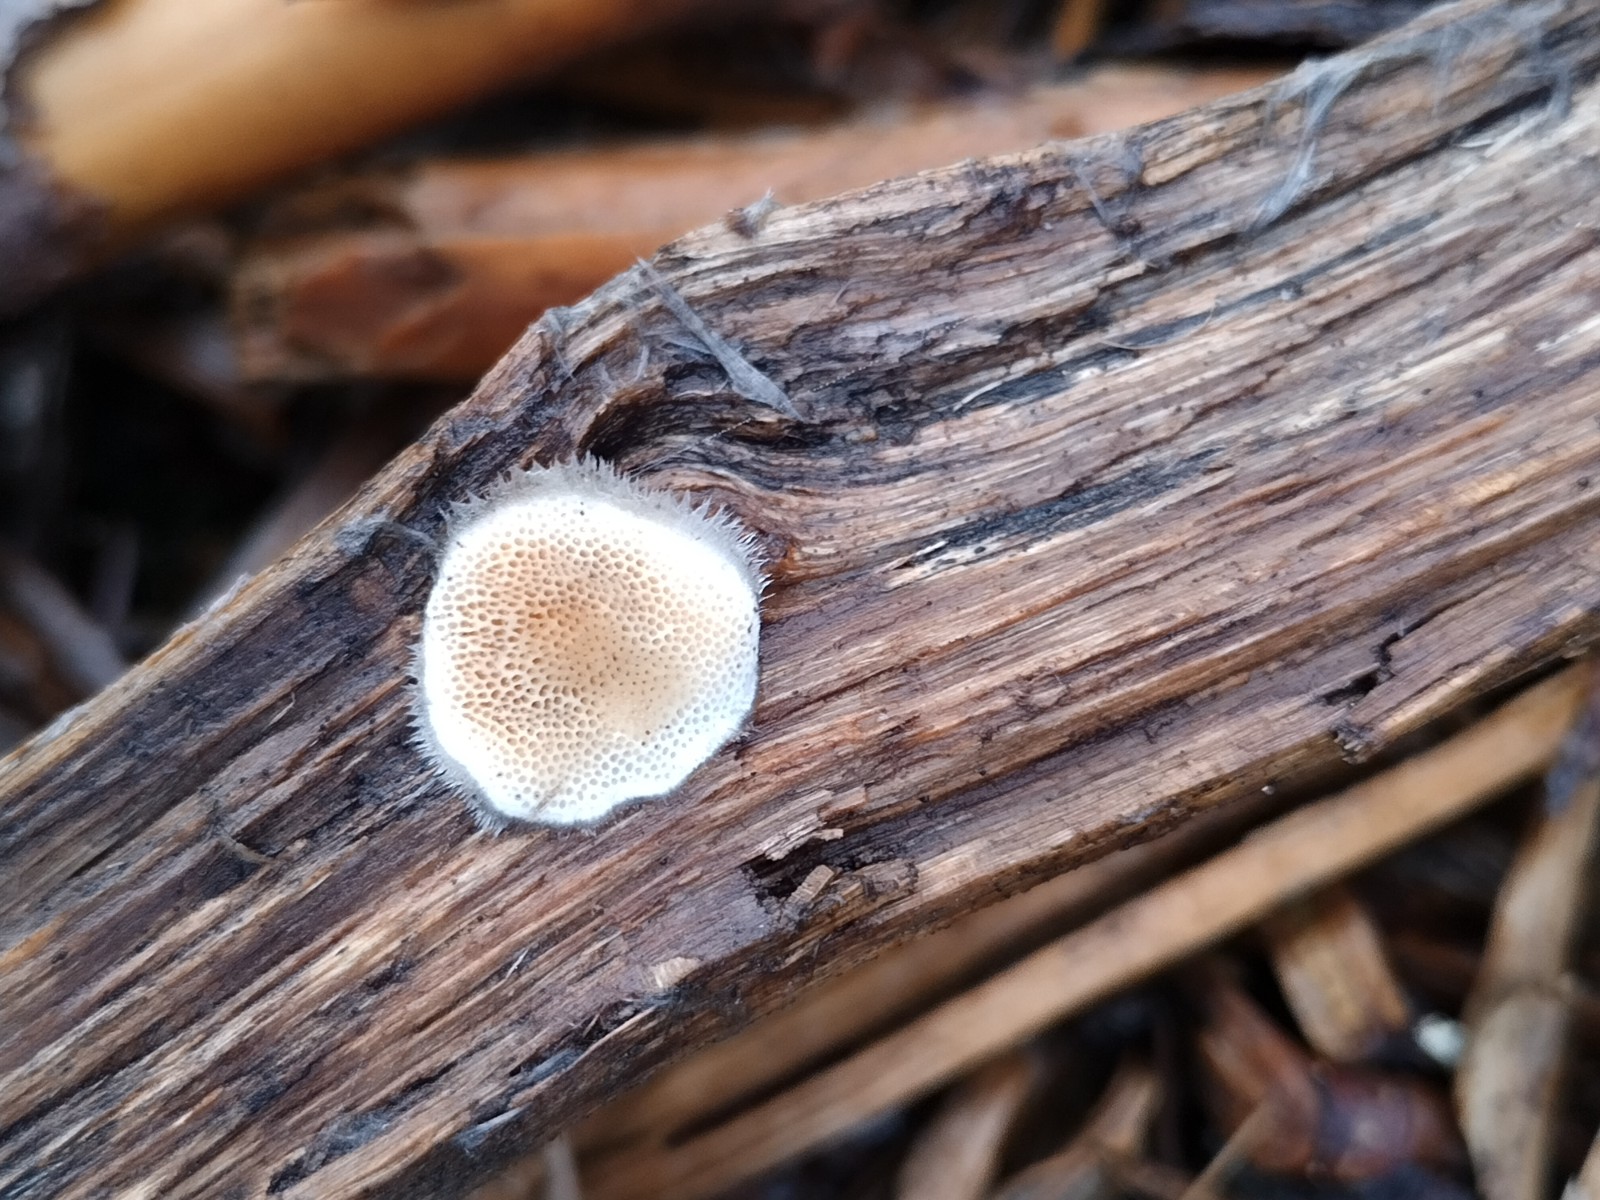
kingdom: Fungi
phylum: Basidiomycota
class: Agaricomycetes
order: Polyporales
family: Polyporaceae
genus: Trametes
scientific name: Trametes versicolor
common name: broget læderporesvamp
